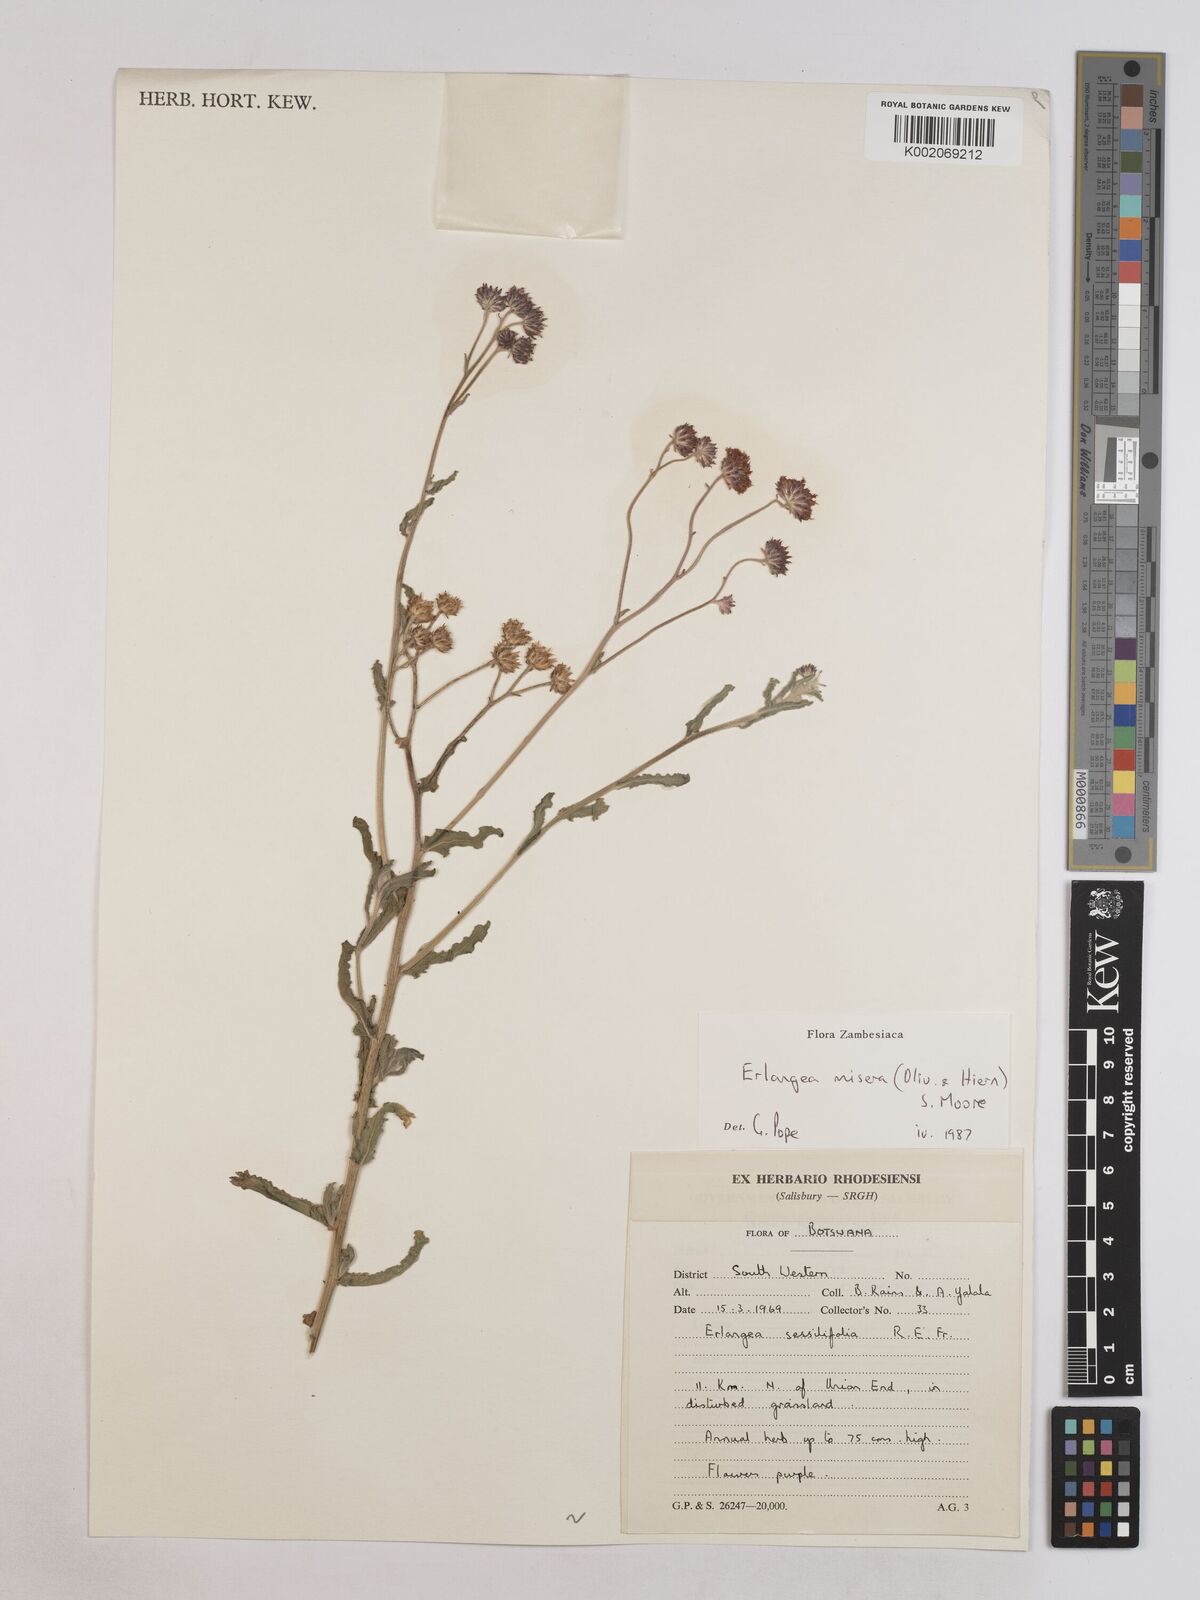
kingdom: Plantae
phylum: Tracheophyta
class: Magnoliopsida
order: Asterales
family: Asteraceae
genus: Erlangea
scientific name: Erlangea misera
